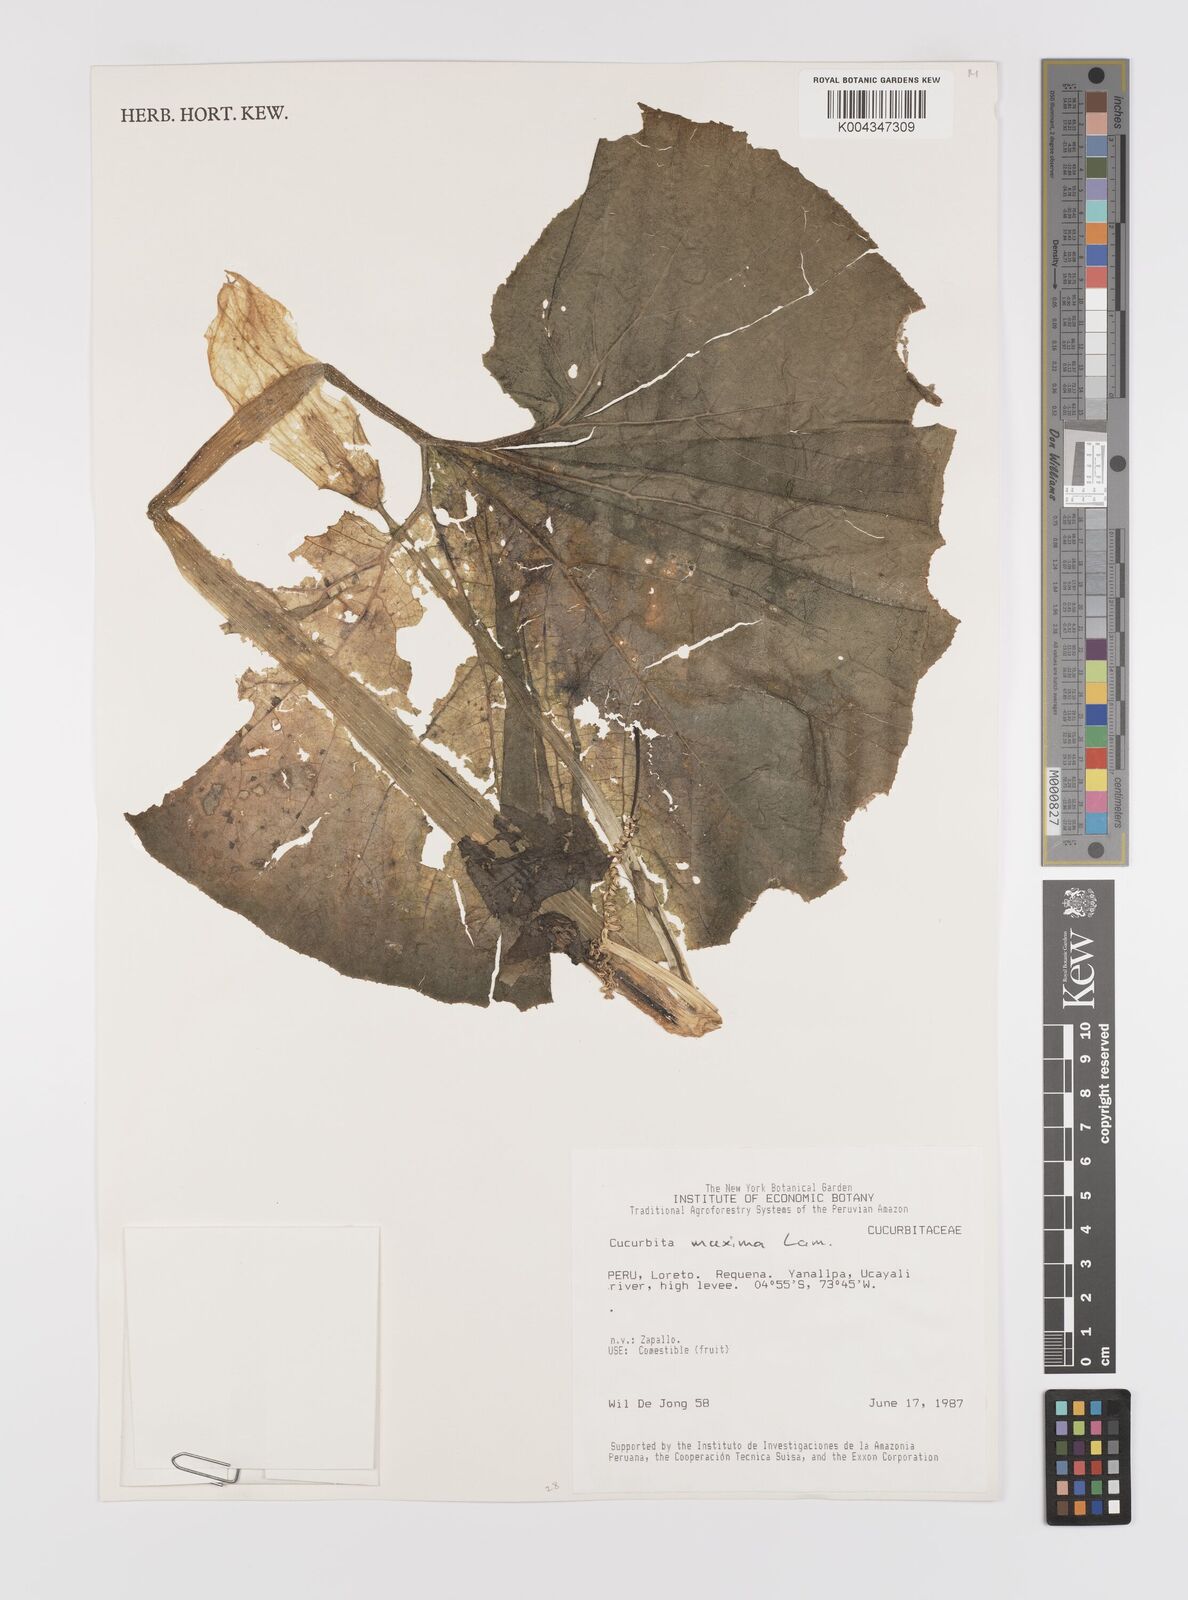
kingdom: Plantae
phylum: Tracheophyta
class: Magnoliopsida
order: Cucurbitales
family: Cucurbitaceae
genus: Cucurbita
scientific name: Cucurbita maxima
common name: Pumpkin
